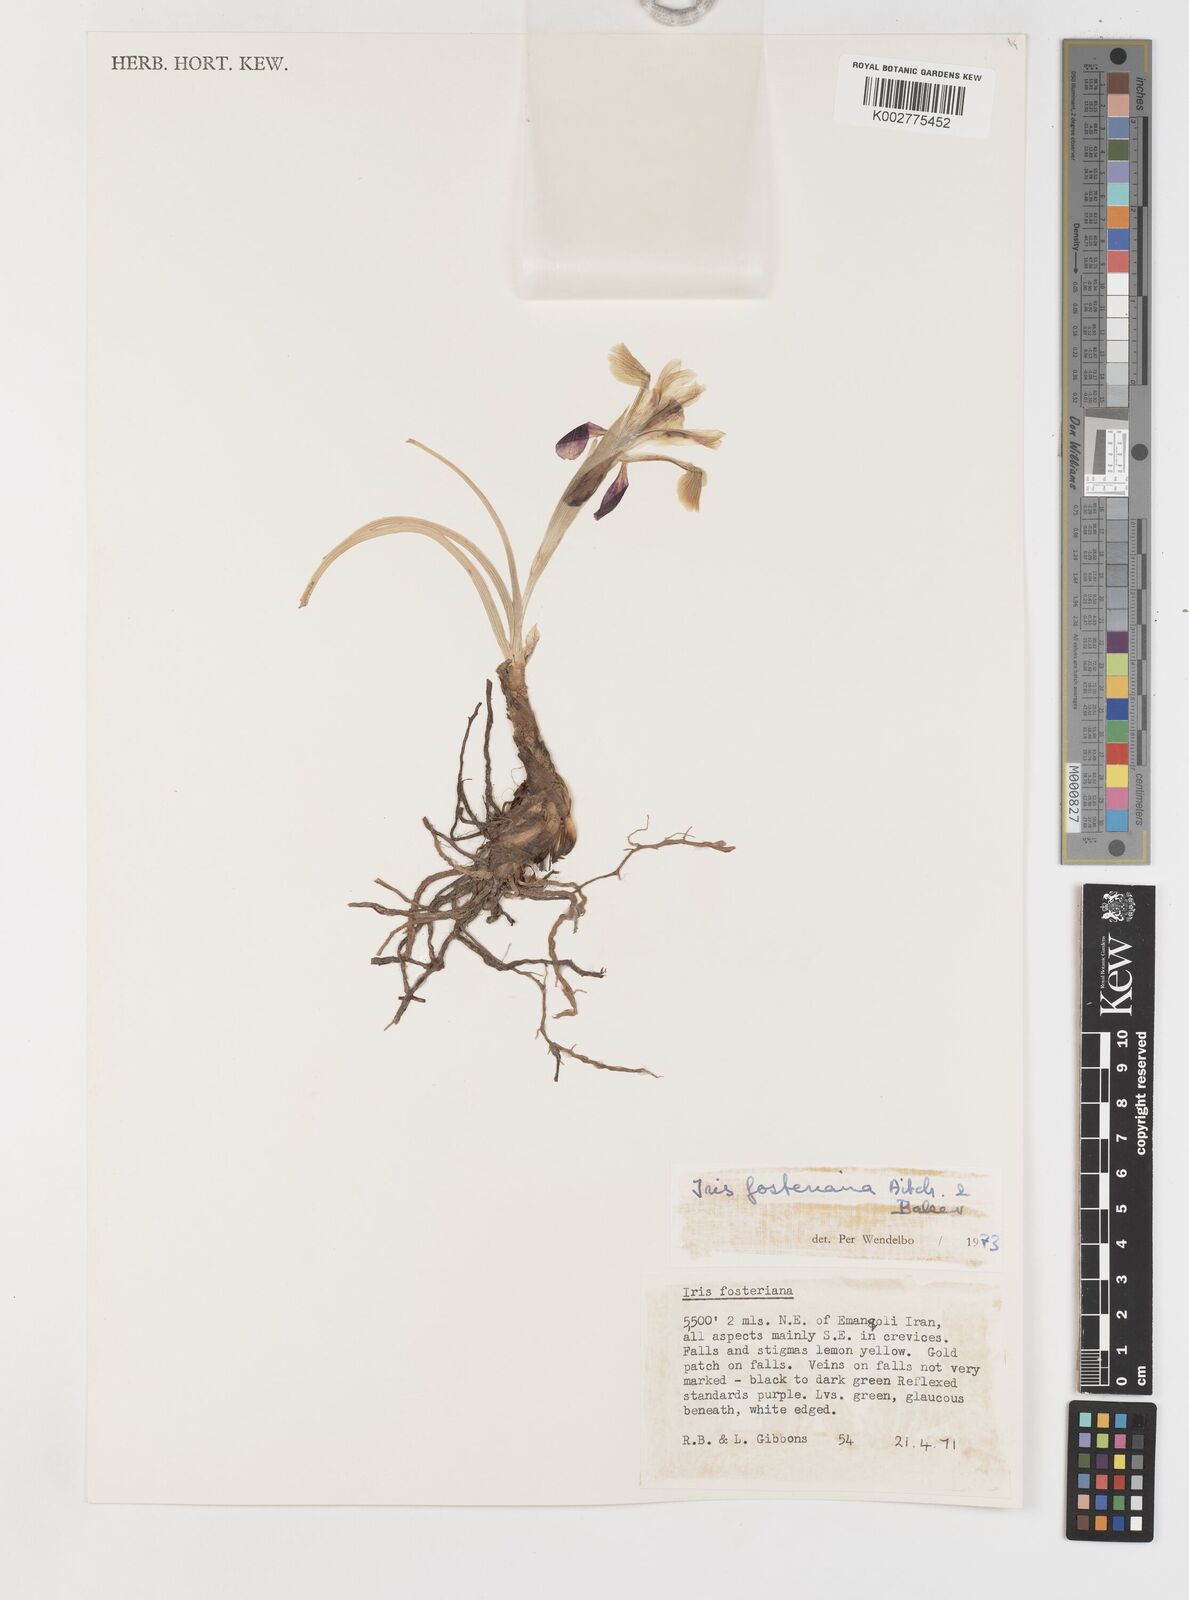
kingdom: Plantae
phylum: Tracheophyta
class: Liliopsida
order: Asparagales
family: Iridaceae
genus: Iris
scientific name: Iris fosteriana
